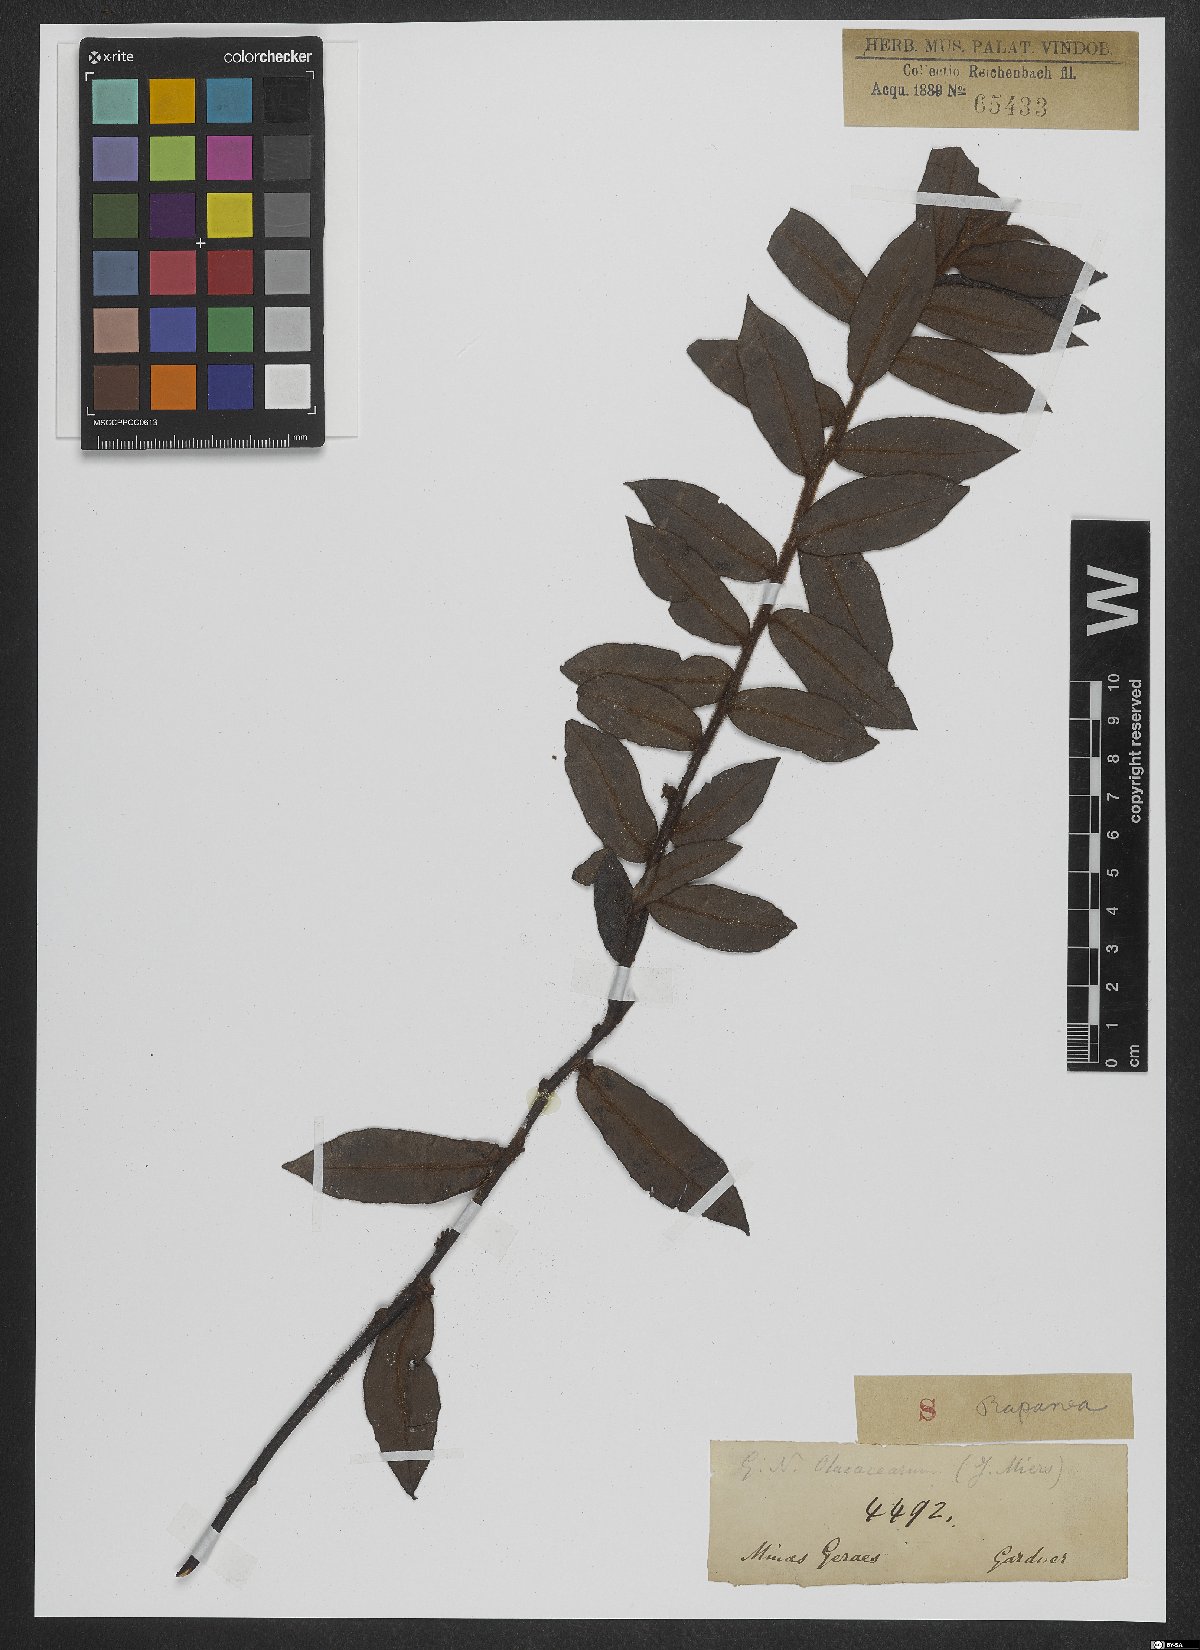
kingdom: Plantae
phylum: Tracheophyta
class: Magnoliopsida
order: Ericales
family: Primulaceae
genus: Myrsine
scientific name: Myrsine robusta
